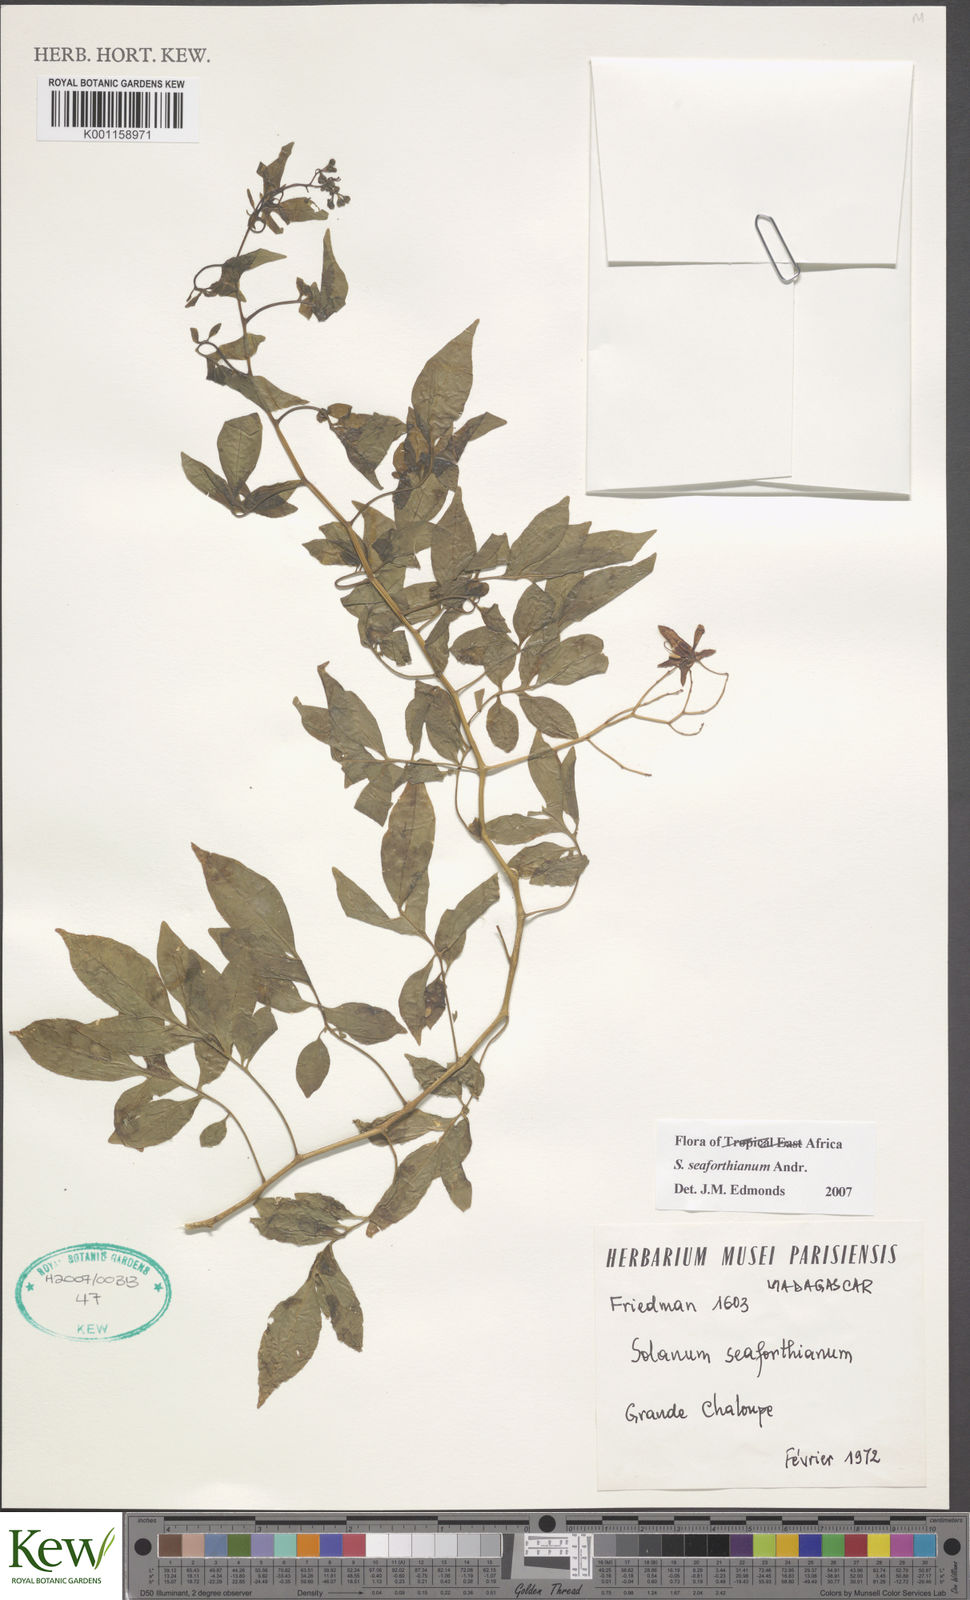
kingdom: Plantae
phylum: Tracheophyta
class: Magnoliopsida
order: Solanales
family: Solanaceae
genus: Solanum
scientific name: Solanum seaforthianum
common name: Brazilian nightshade
